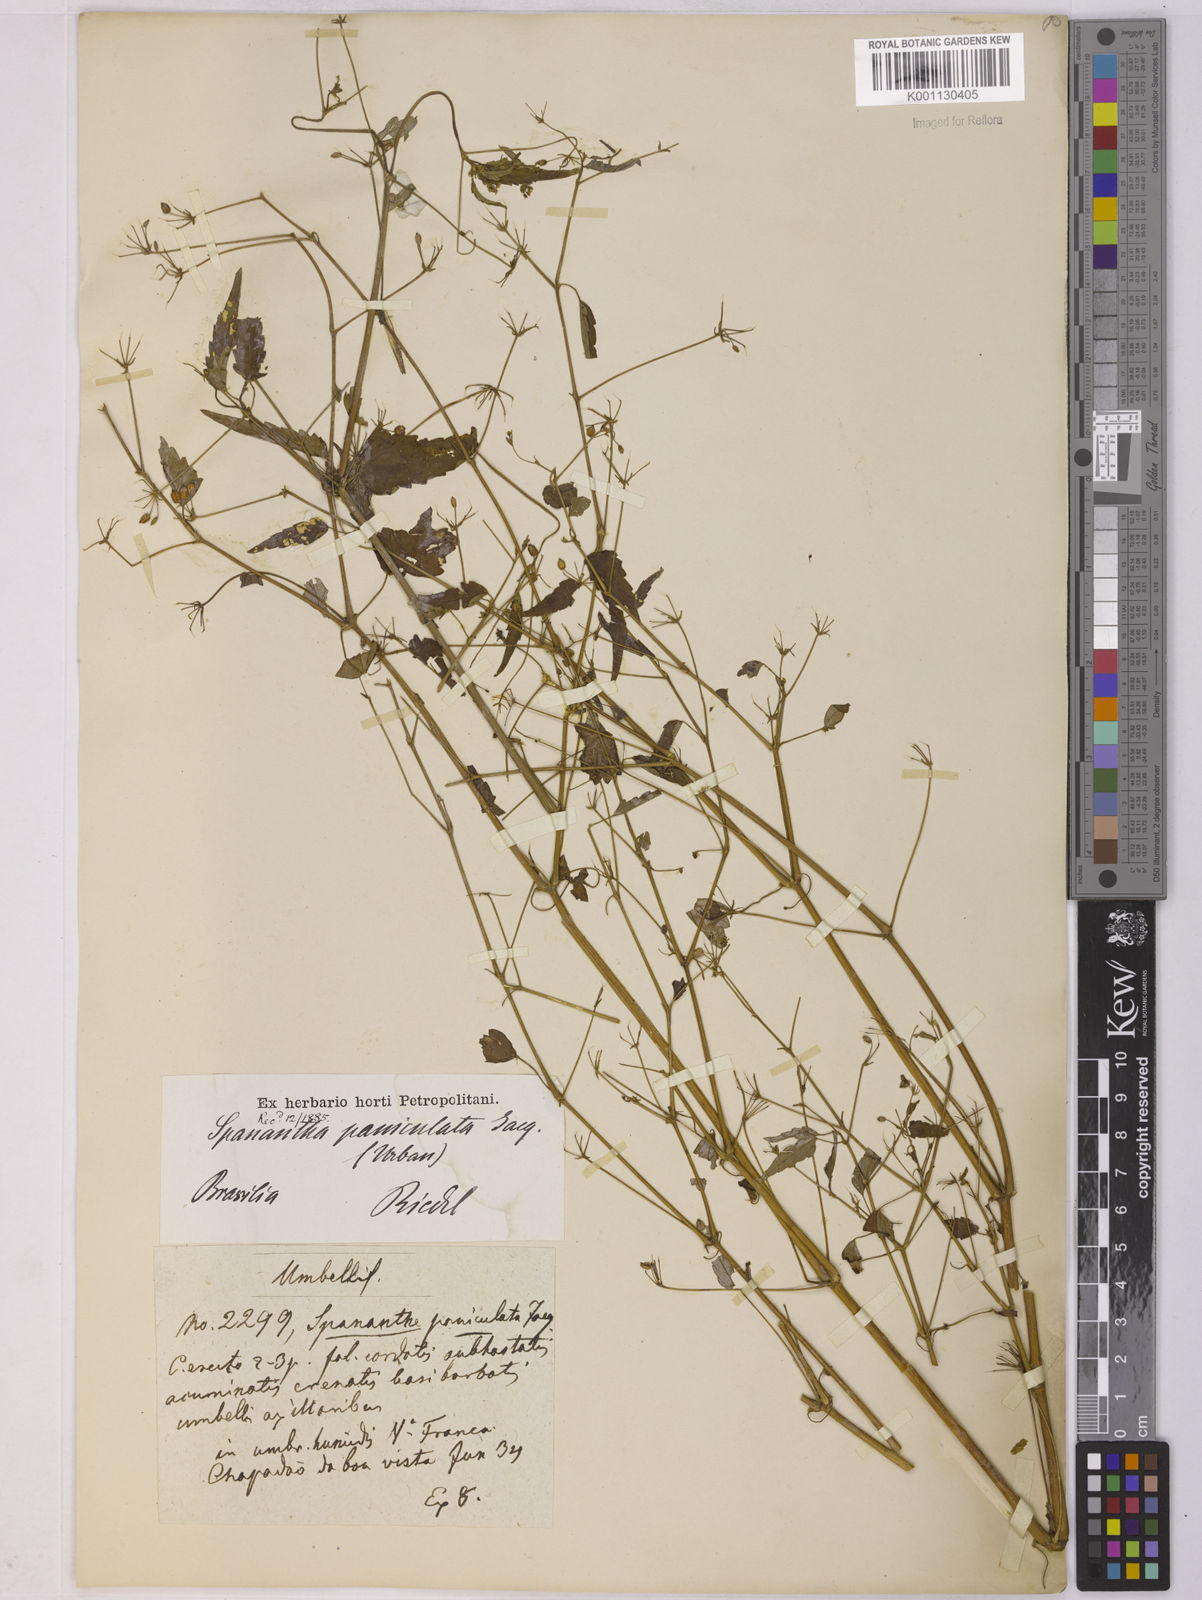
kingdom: Plantae
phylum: Tracheophyta
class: Magnoliopsida
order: Apiales
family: Apiaceae
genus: Spananthe
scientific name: Spananthe paniculata
